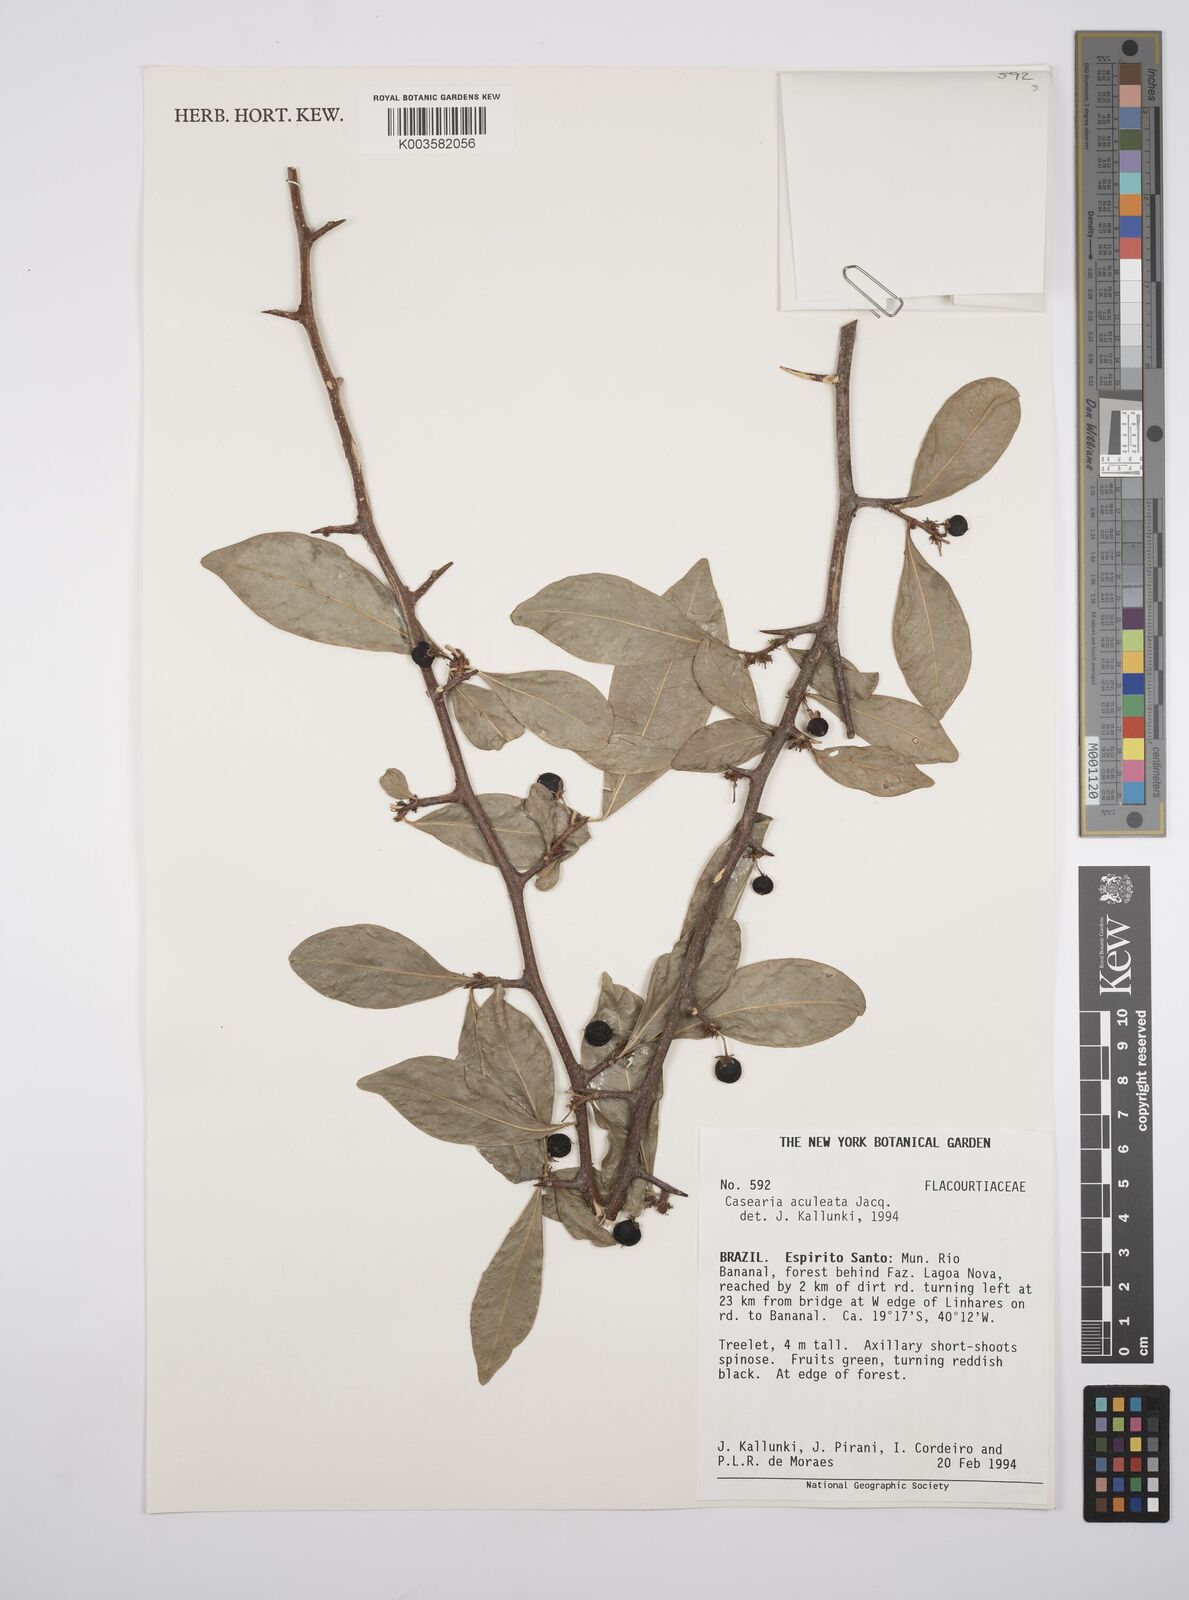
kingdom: Plantae
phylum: Tracheophyta
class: Magnoliopsida
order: Malpighiales
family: Salicaceae
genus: Casearia
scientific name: Casearia arborea
